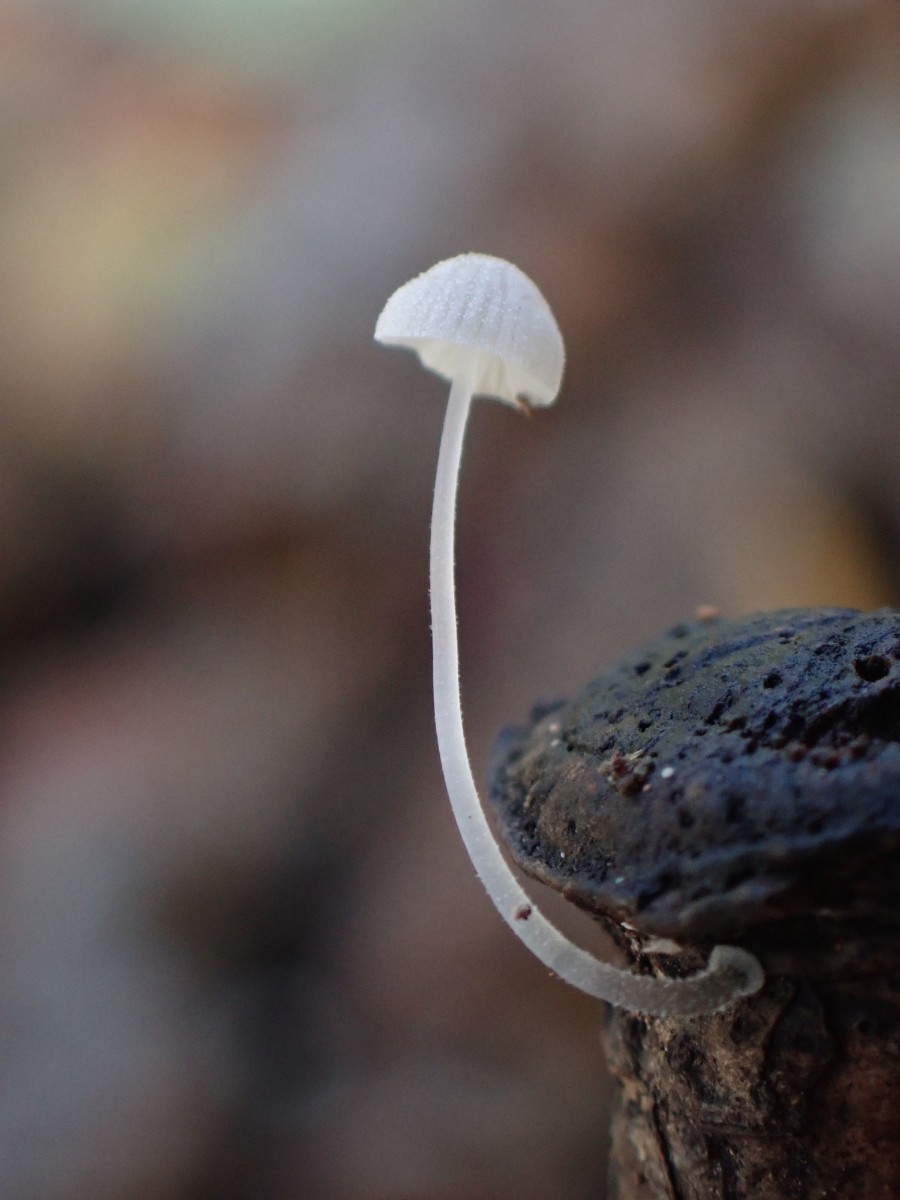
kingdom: Fungi
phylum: Basidiomycota
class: Agaricomycetes
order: Agaricales
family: Mycenaceae
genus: Mycena
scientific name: Mycena tenerrima
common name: pudret huesvamp
